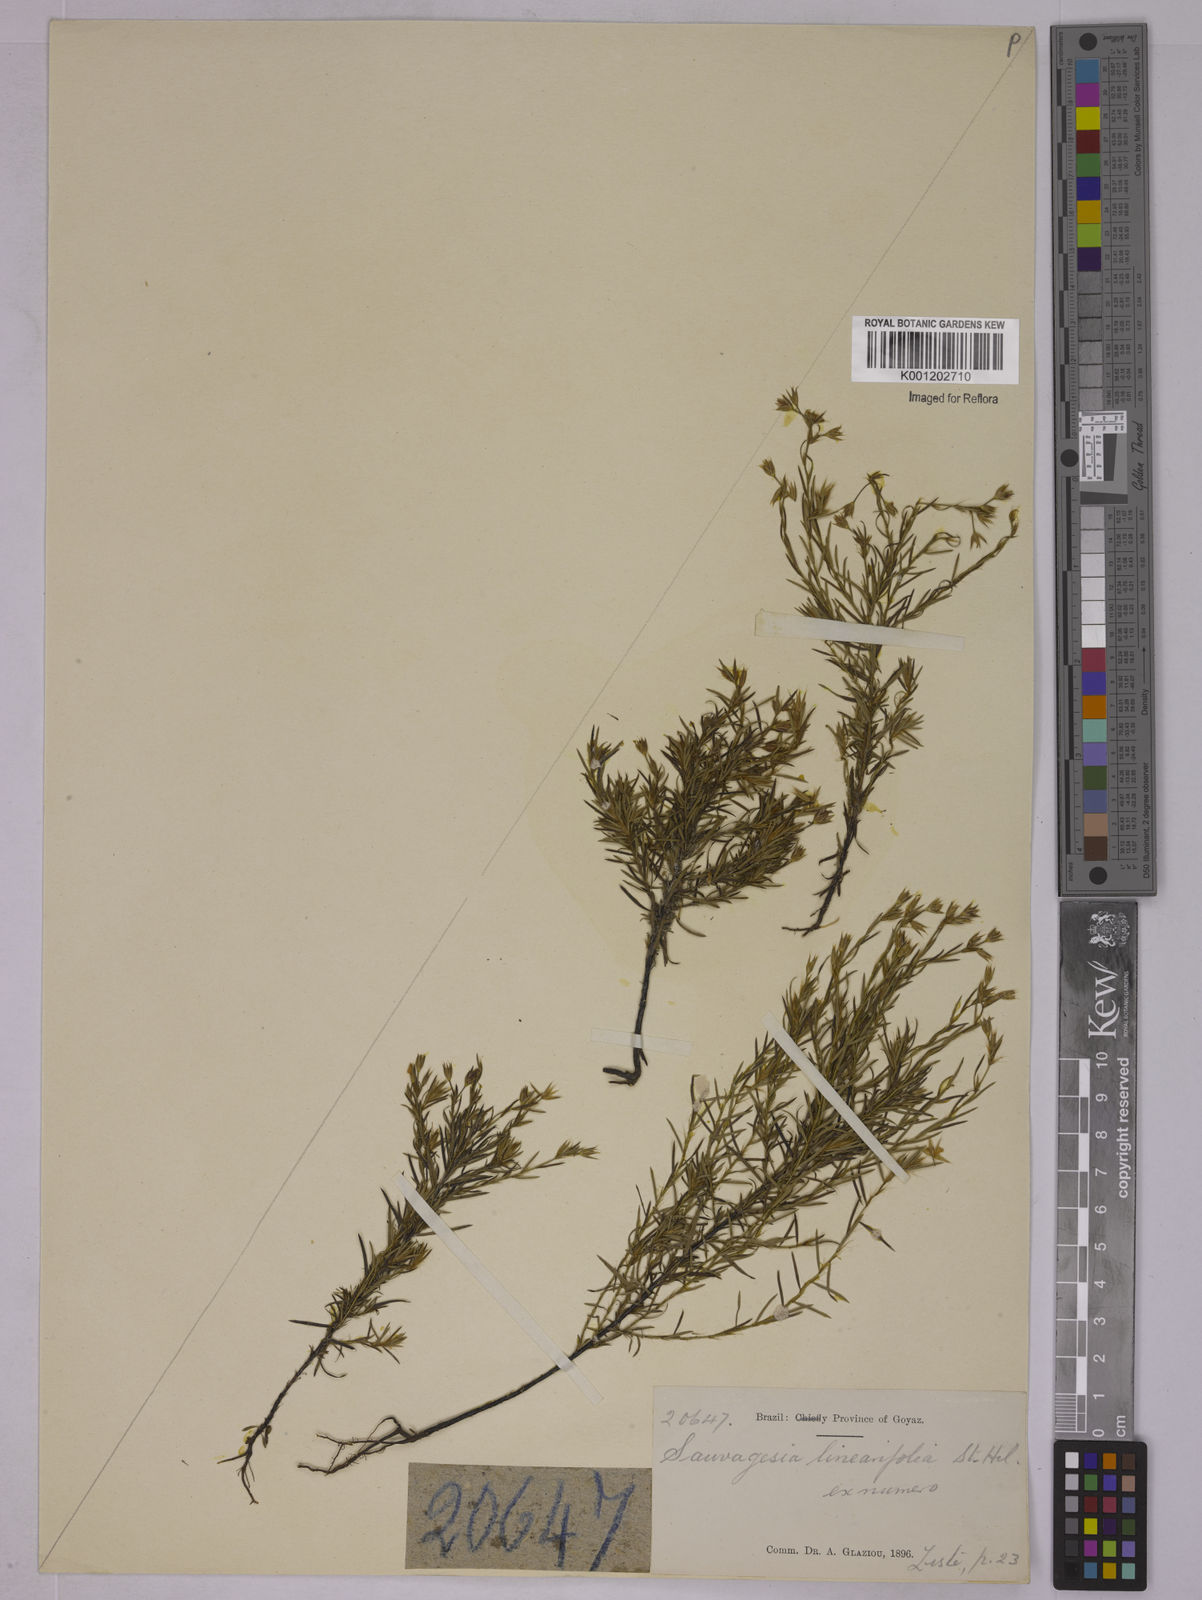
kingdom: Plantae
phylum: Tracheophyta
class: Magnoliopsida
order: Malpighiales
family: Ochnaceae
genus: Sauvagesia
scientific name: Sauvagesia linearifolia
